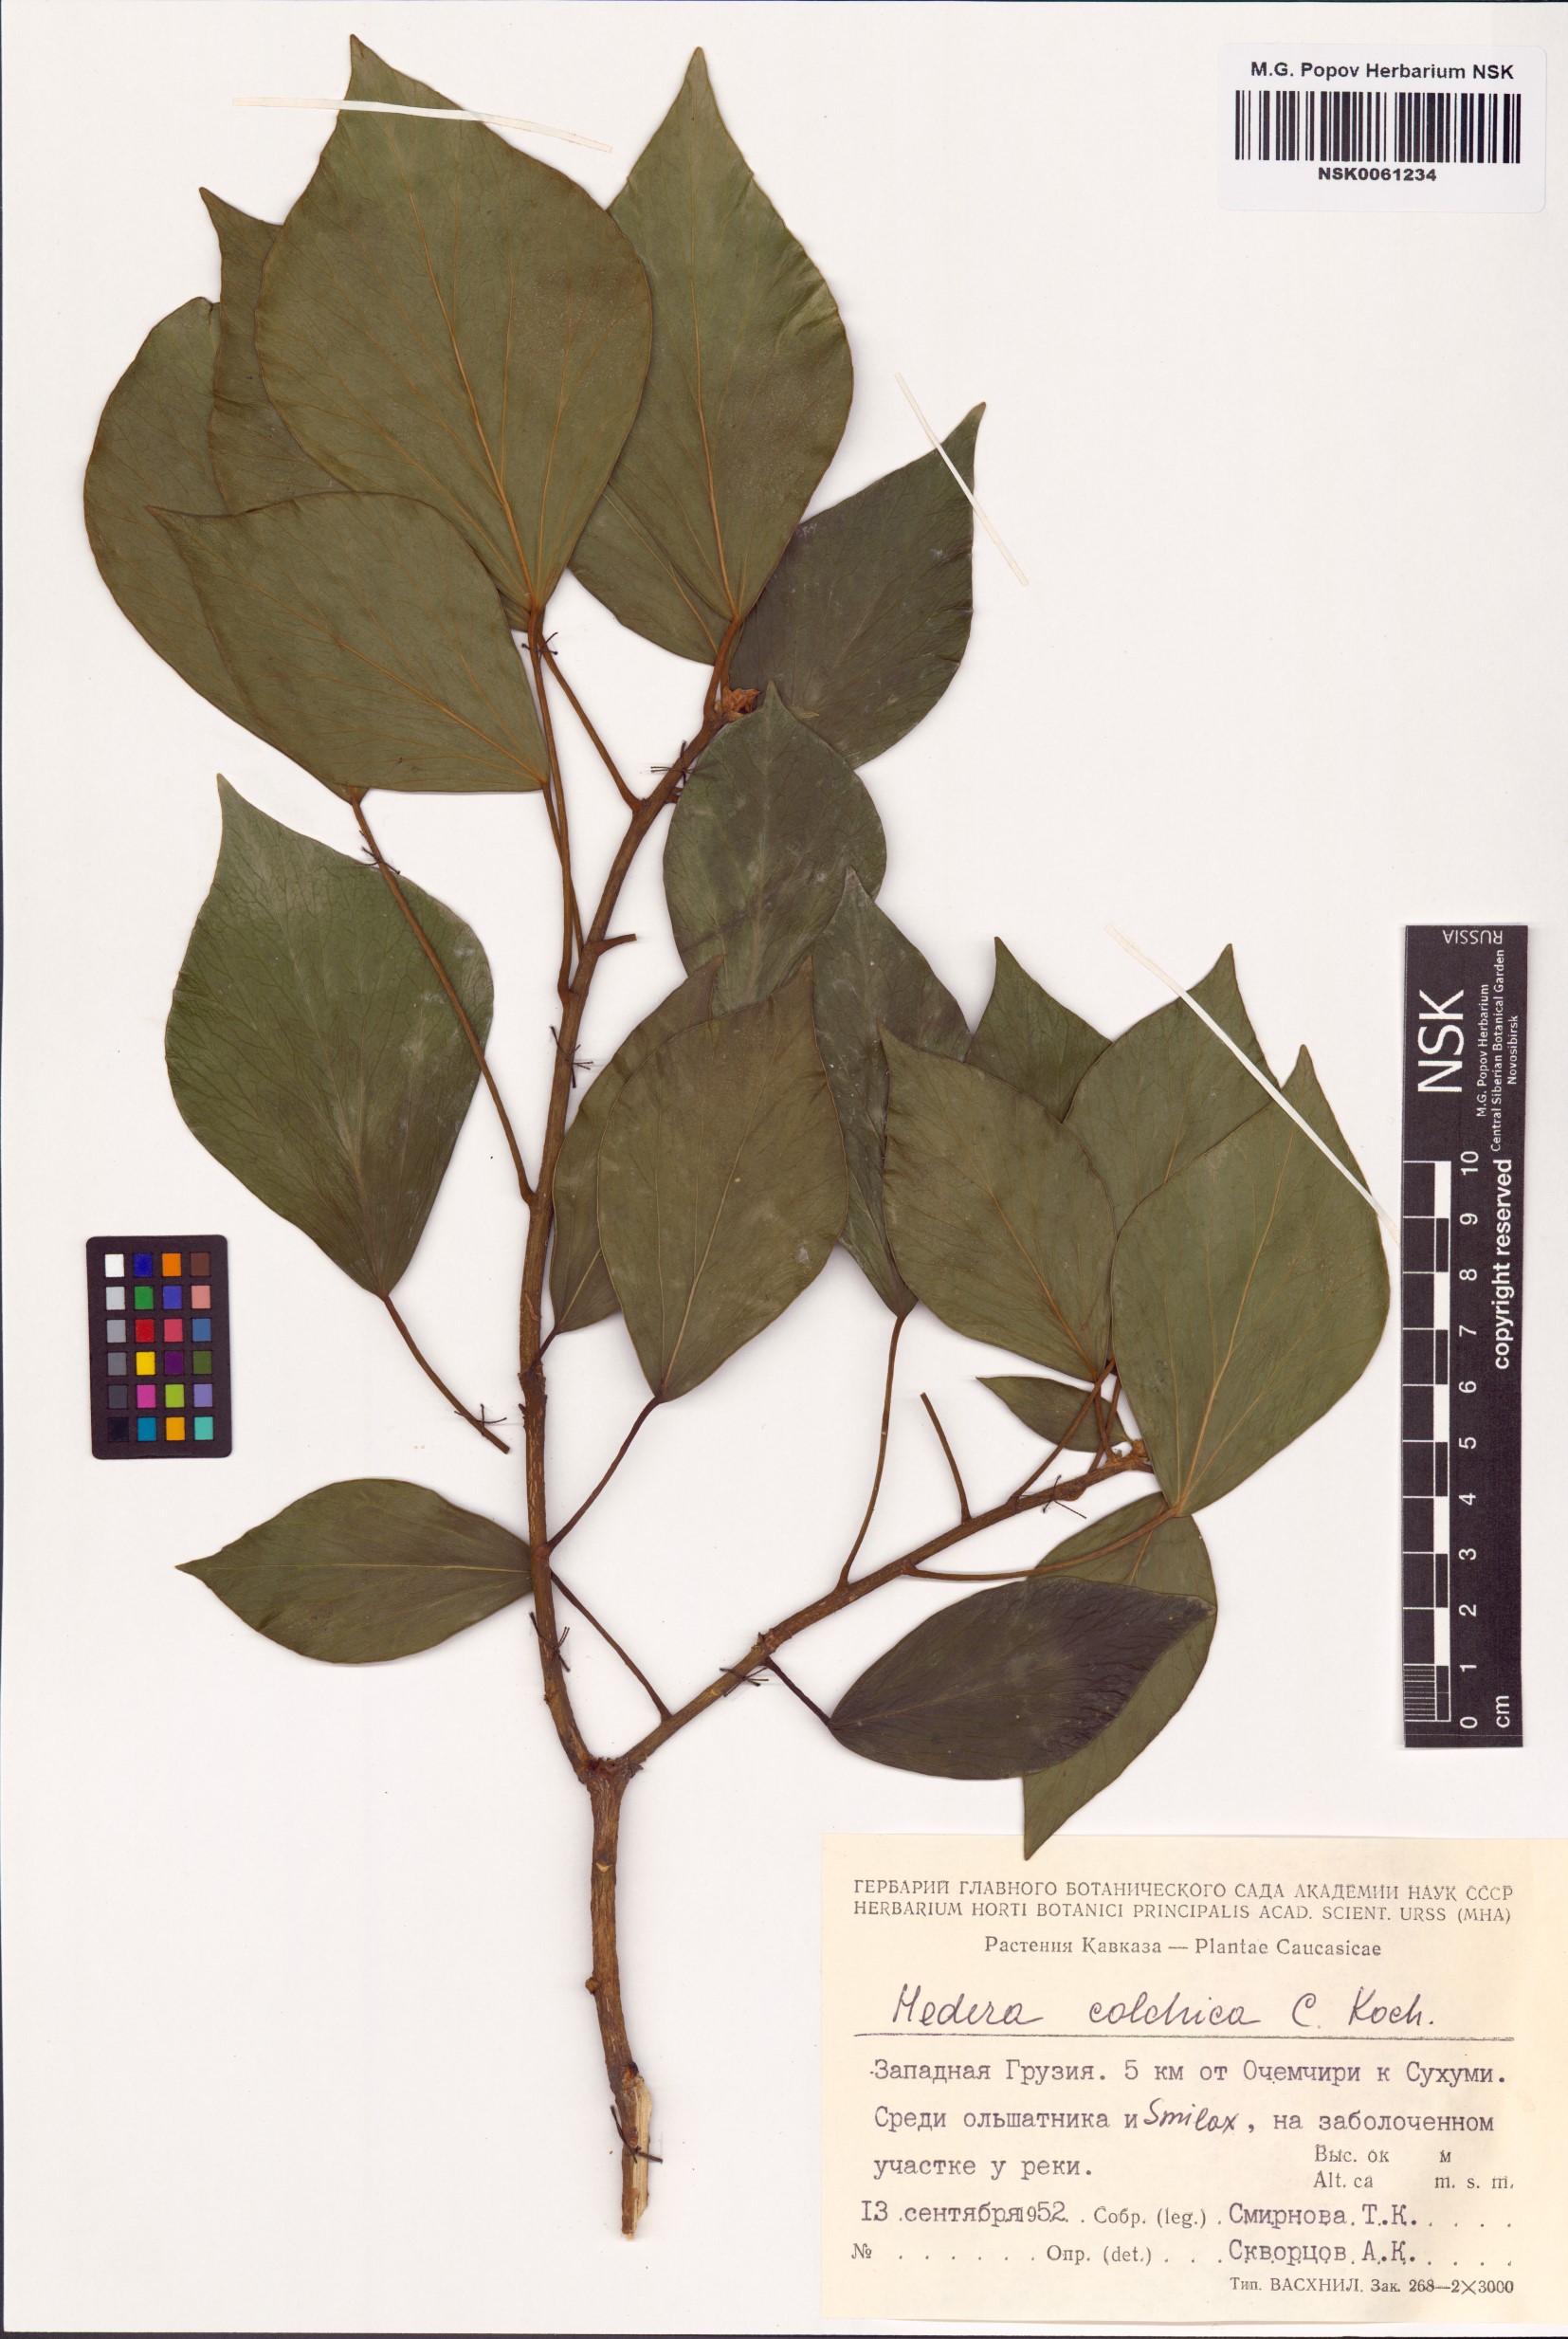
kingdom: Plantae
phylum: Tracheophyta
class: Magnoliopsida
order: Apiales
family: Araliaceae
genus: Hedera
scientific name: Hedera colchica
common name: Persian ivy
